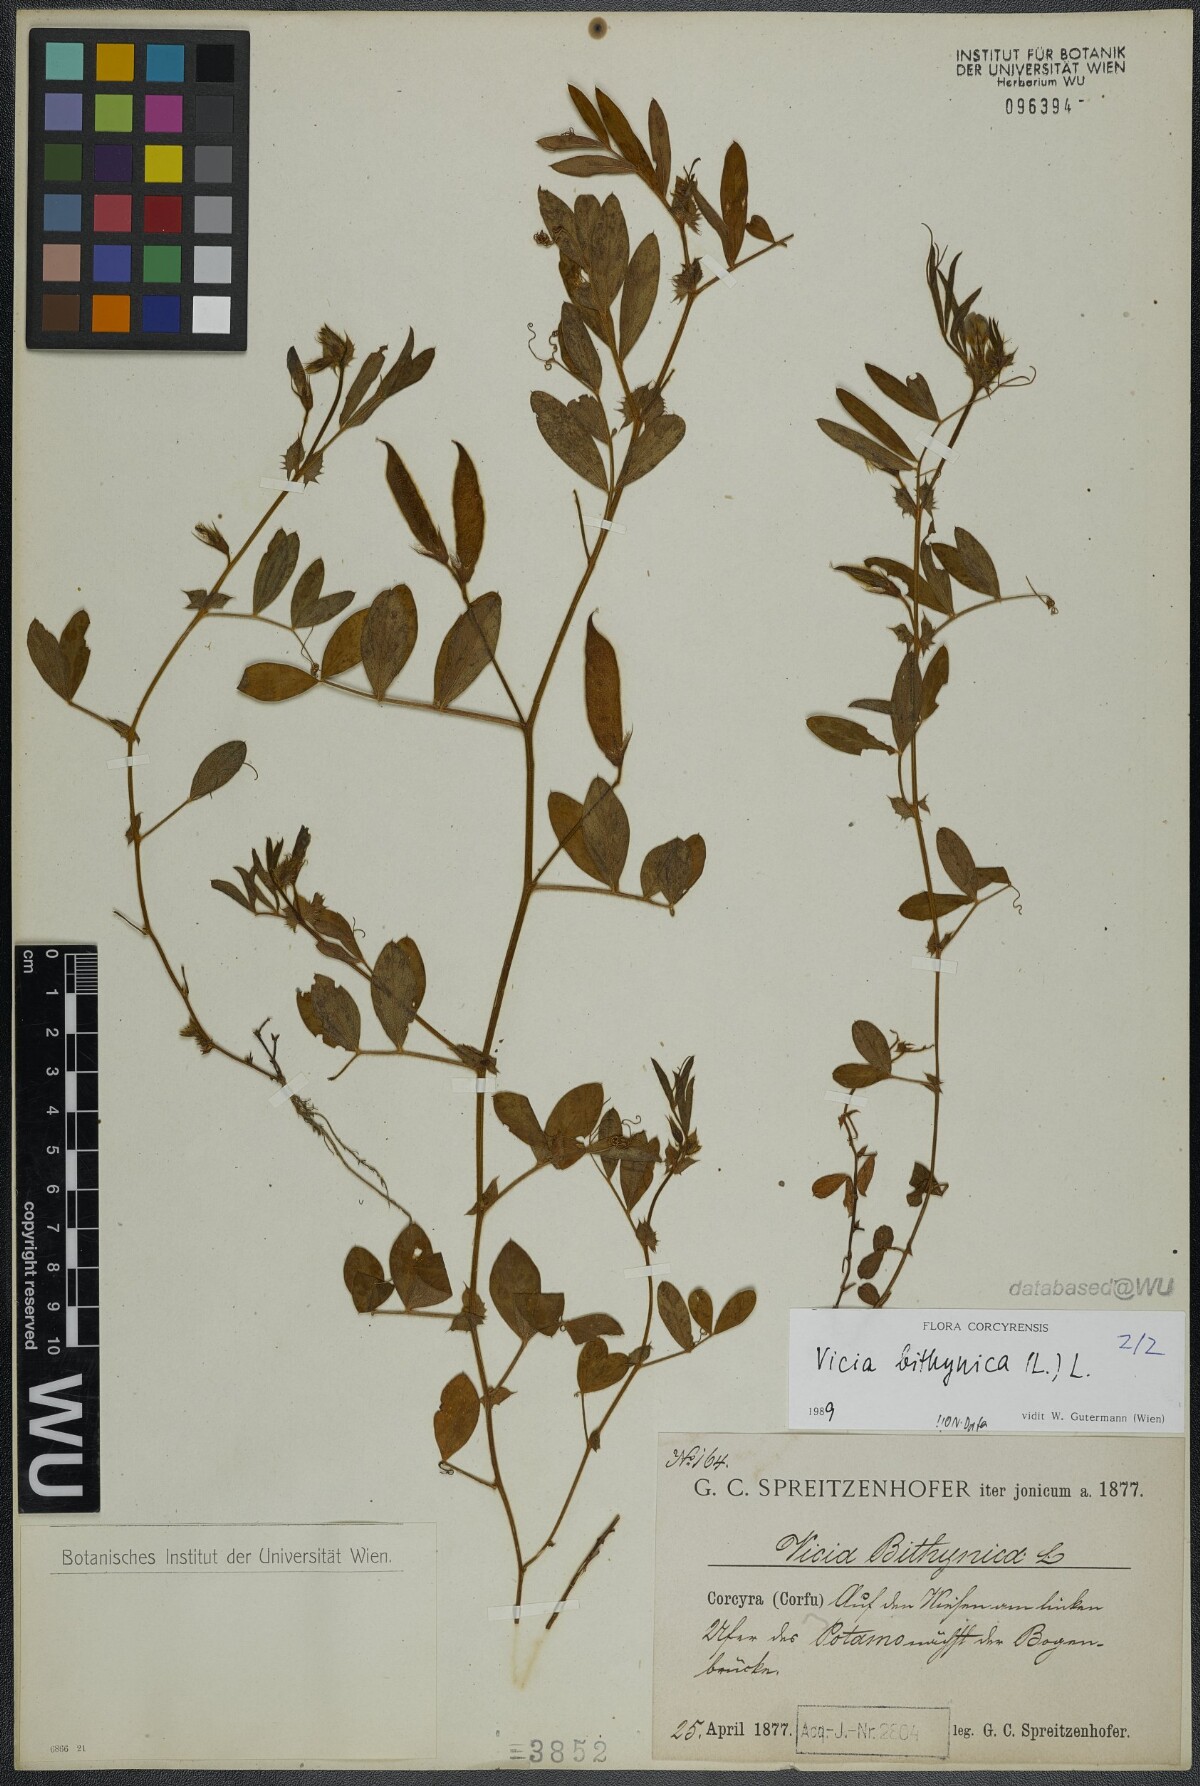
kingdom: Plantae
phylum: Tracheophyta
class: Magnoliopsida
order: Fabales
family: Fabaceae
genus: Vicia
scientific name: Vicia bithynica
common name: Bithynian vetch
